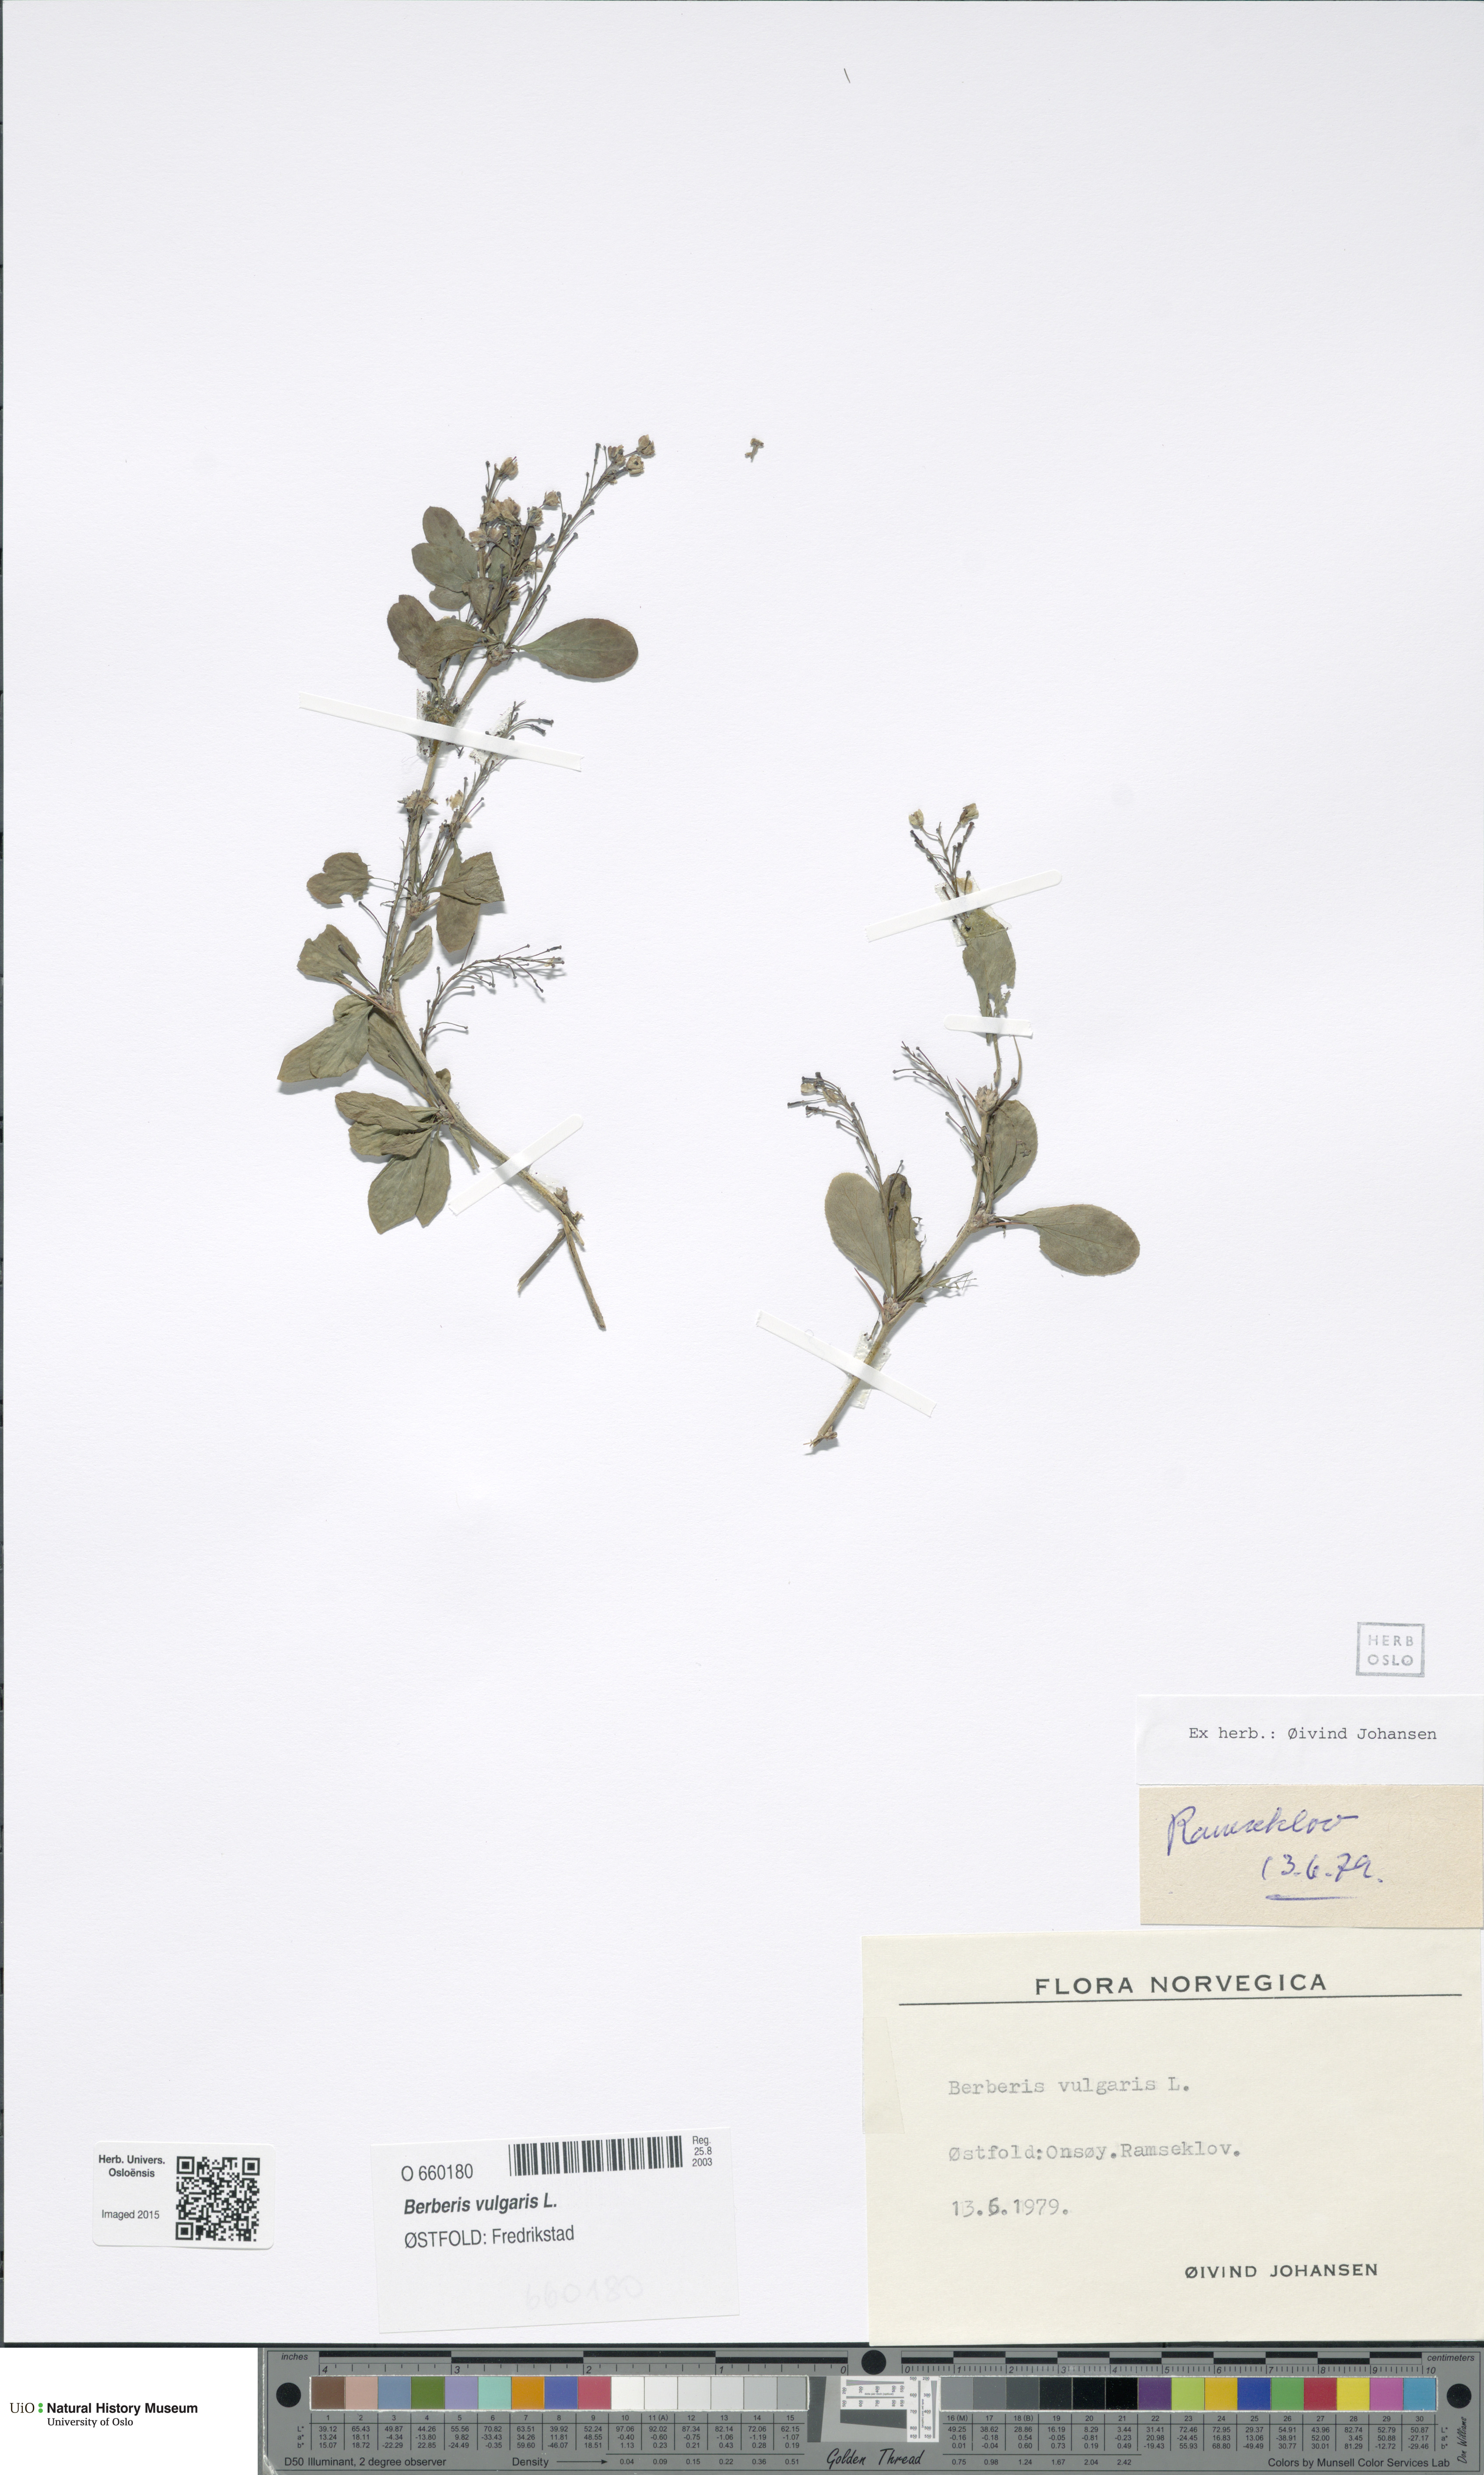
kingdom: Plantae
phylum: Tracheophyta
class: Magnoliopsida
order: Ranunculales
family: Berberidaceae
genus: Berberis
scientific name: Berberis vulgaris
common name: Barberry
